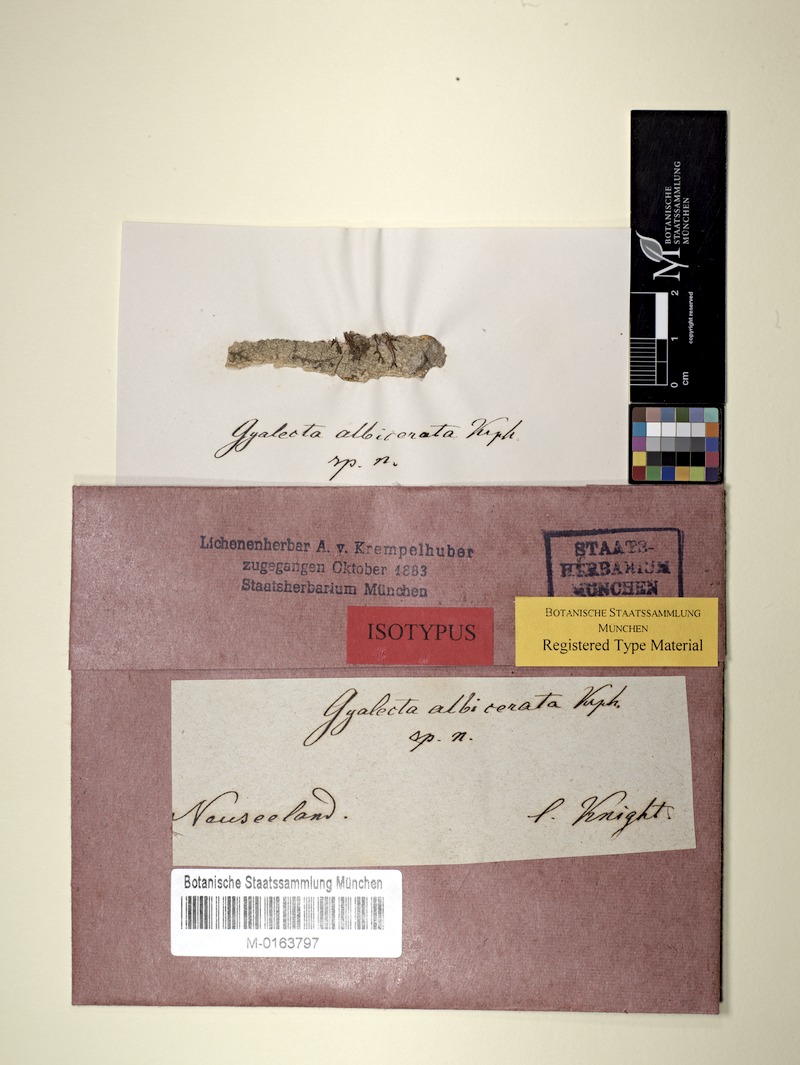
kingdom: Fungi
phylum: Ascomycota
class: Lecanoromycetes
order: Lecanorales
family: Ramalinaceae
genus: Bacidia
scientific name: Bacidia
